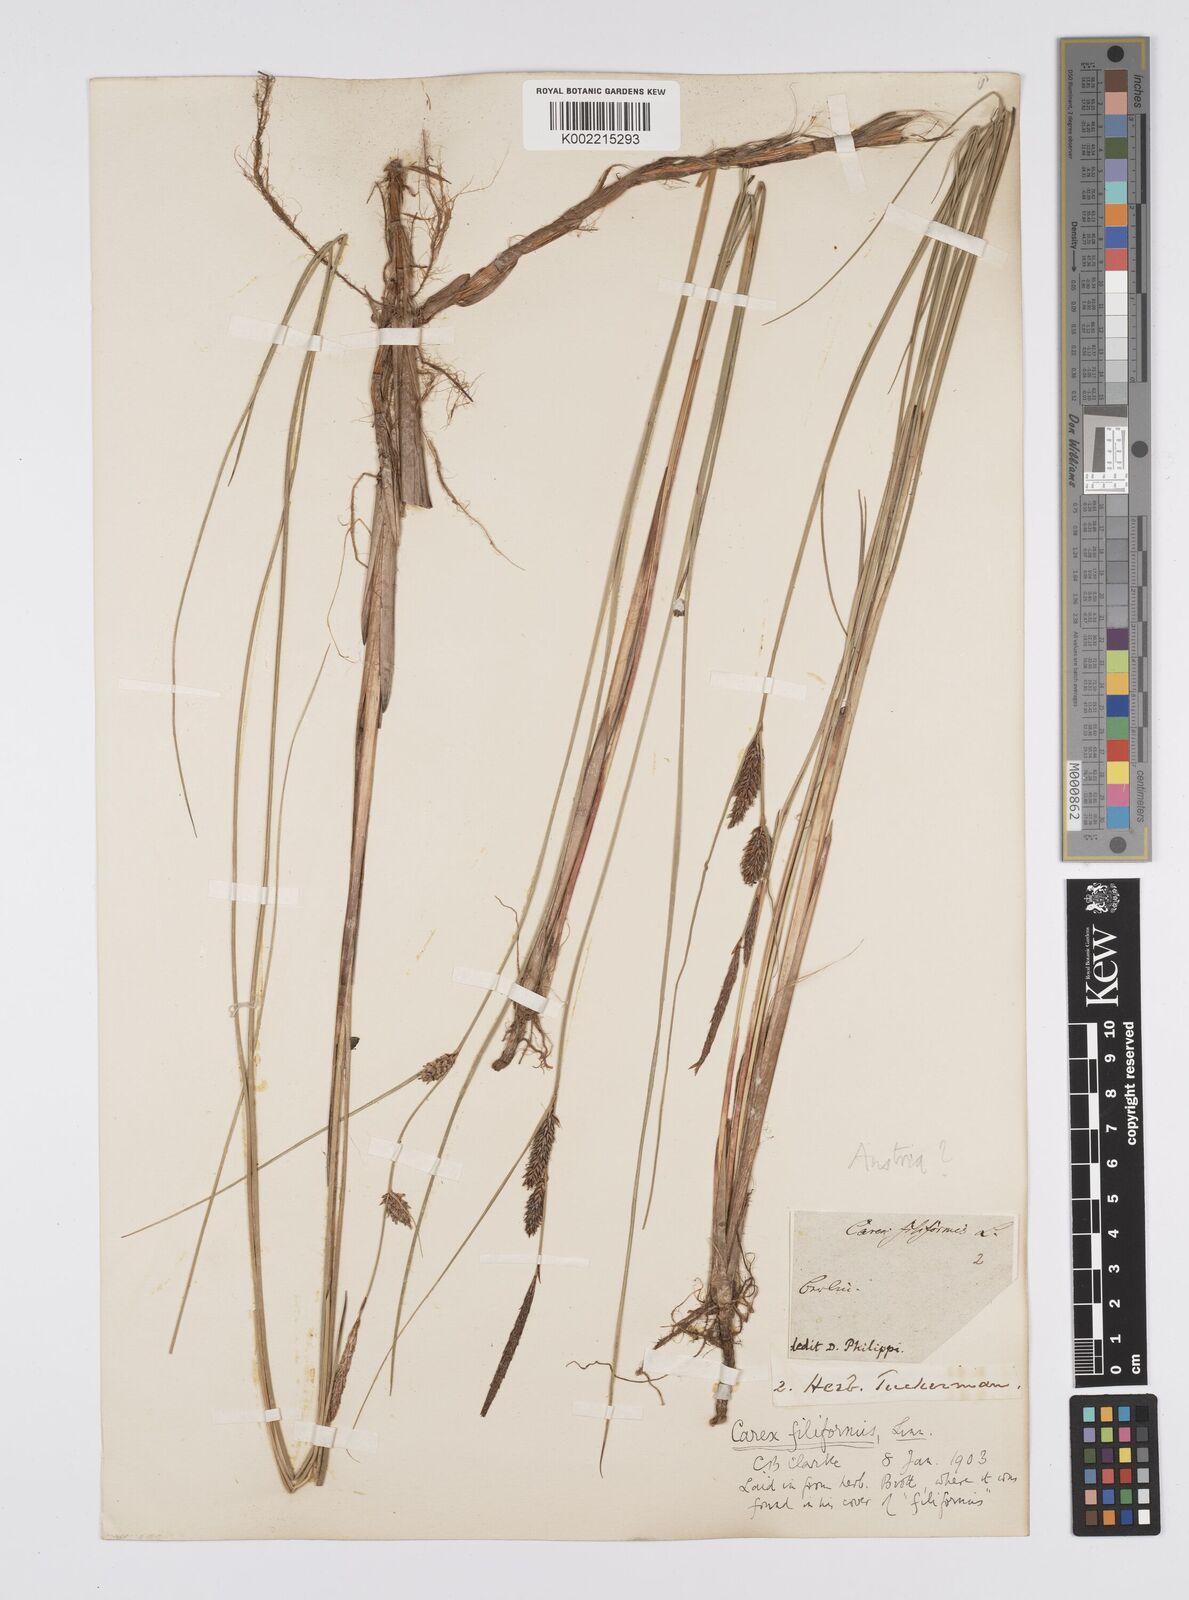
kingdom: Plantae
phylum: Tracheophyta
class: Liliopsida
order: Poales
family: Cyperaceae
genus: Carex
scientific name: Carex lasiocarpa
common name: Slender sedge
